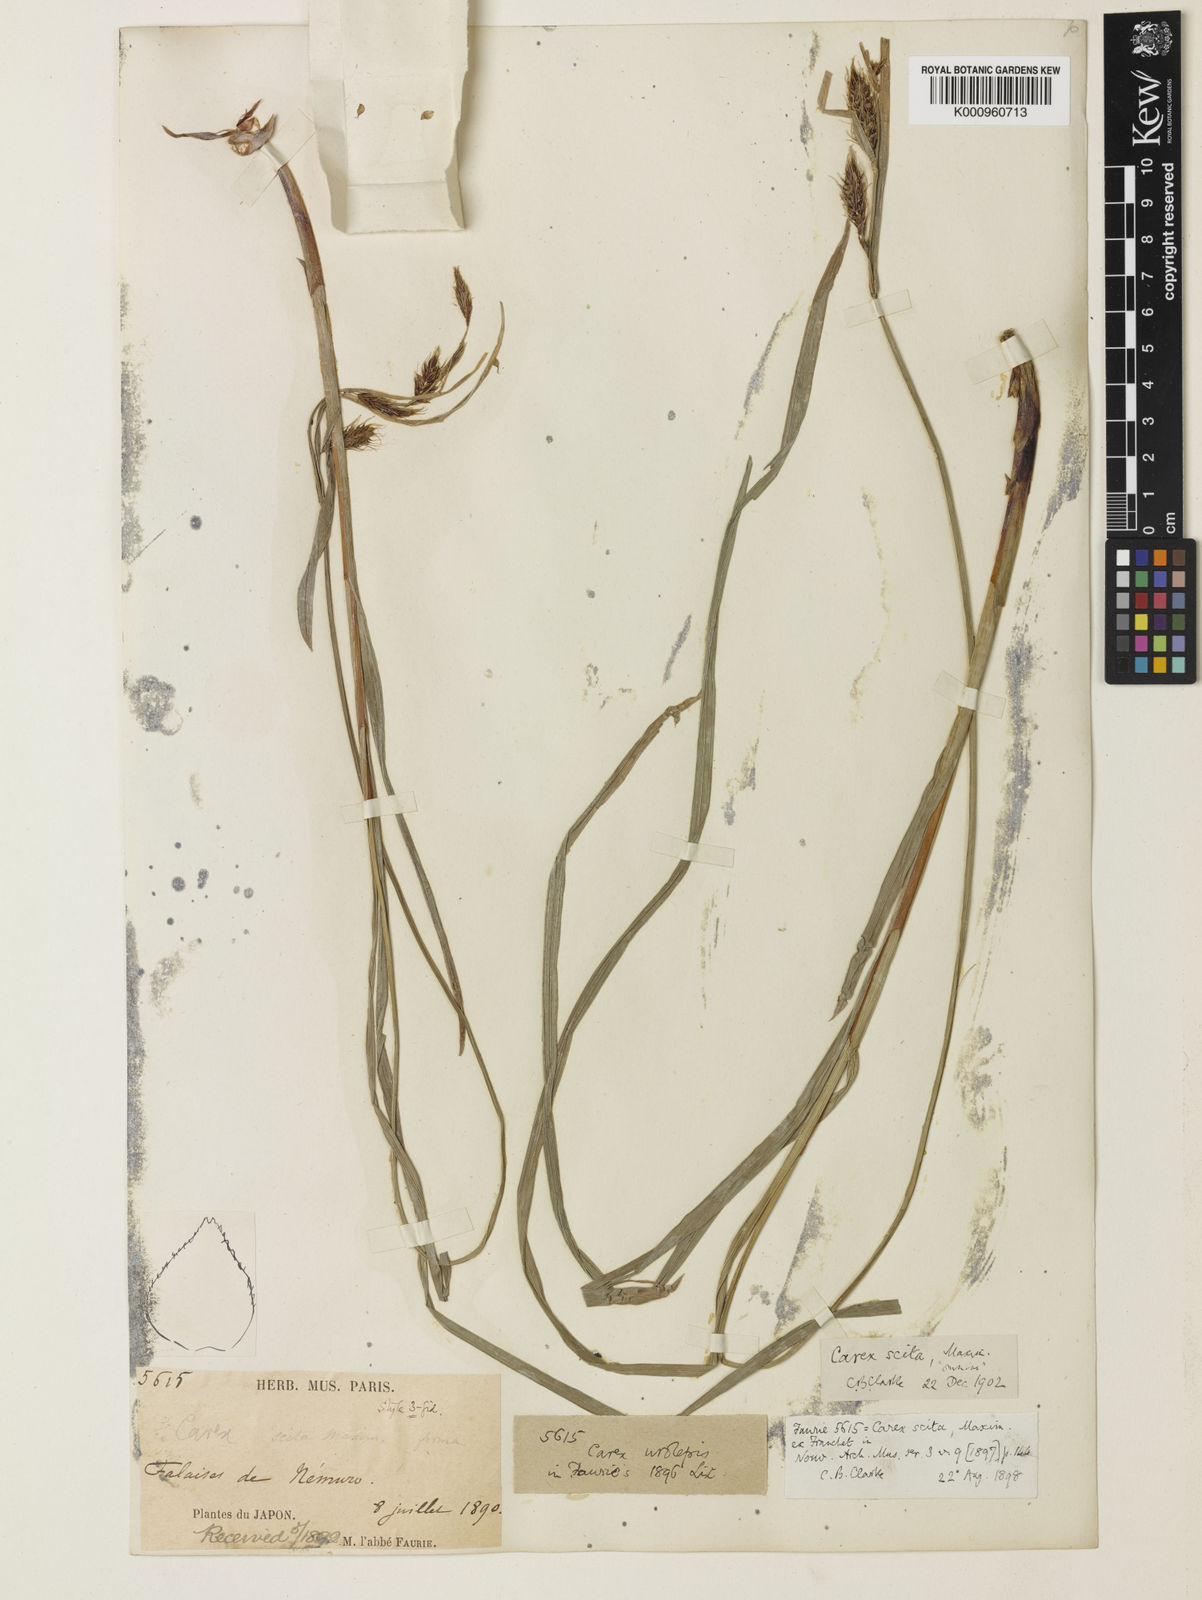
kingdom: Plantae
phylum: Tracheophyta
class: Liliopsida
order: Poales
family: Cyperaceae
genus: Carex
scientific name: Carex scita
